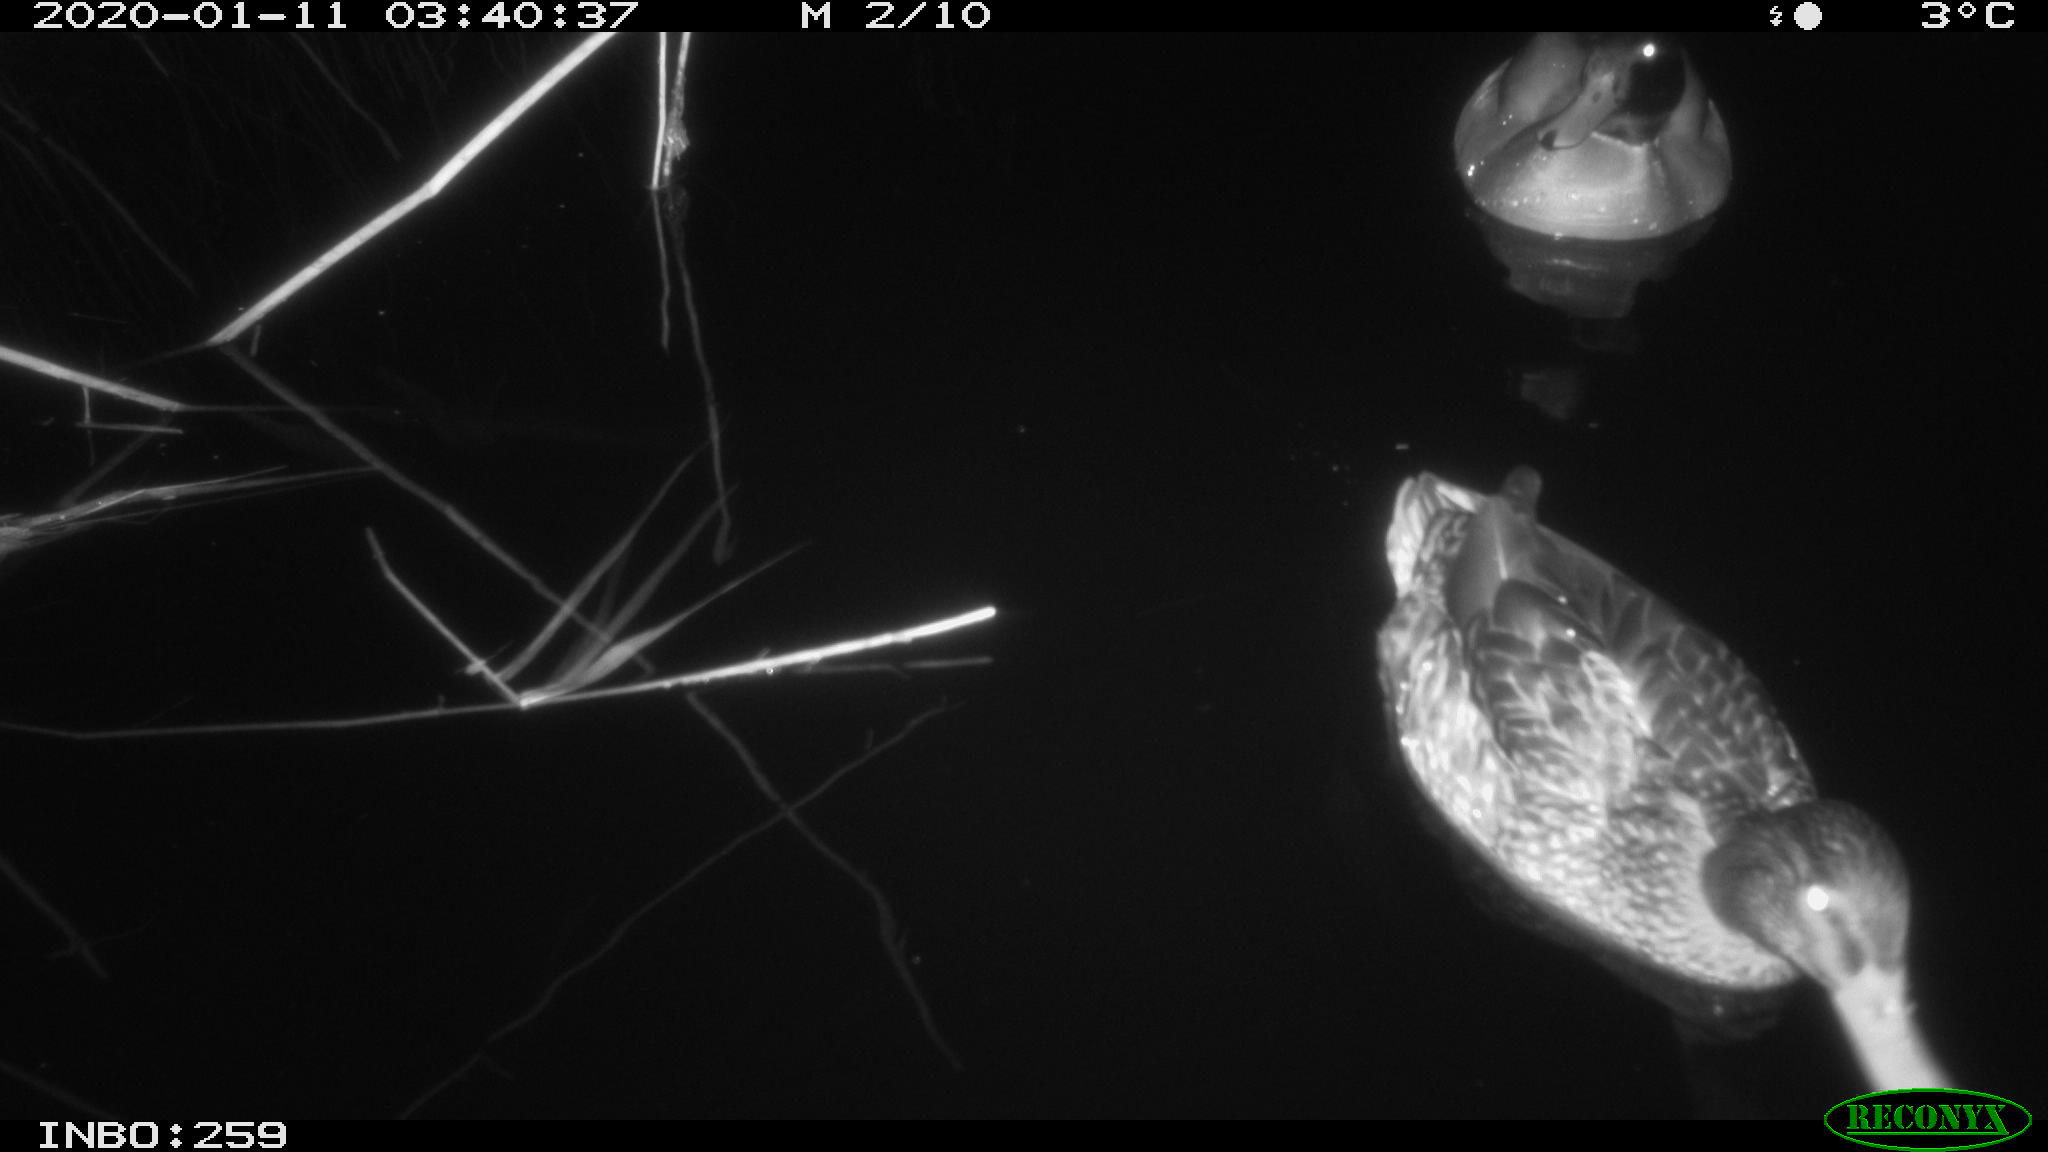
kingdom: Animalia
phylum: Chordata
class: Aves
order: Anseriformes
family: Anatidae
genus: Anas
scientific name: Anas platyrhynchos
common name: Mallard
